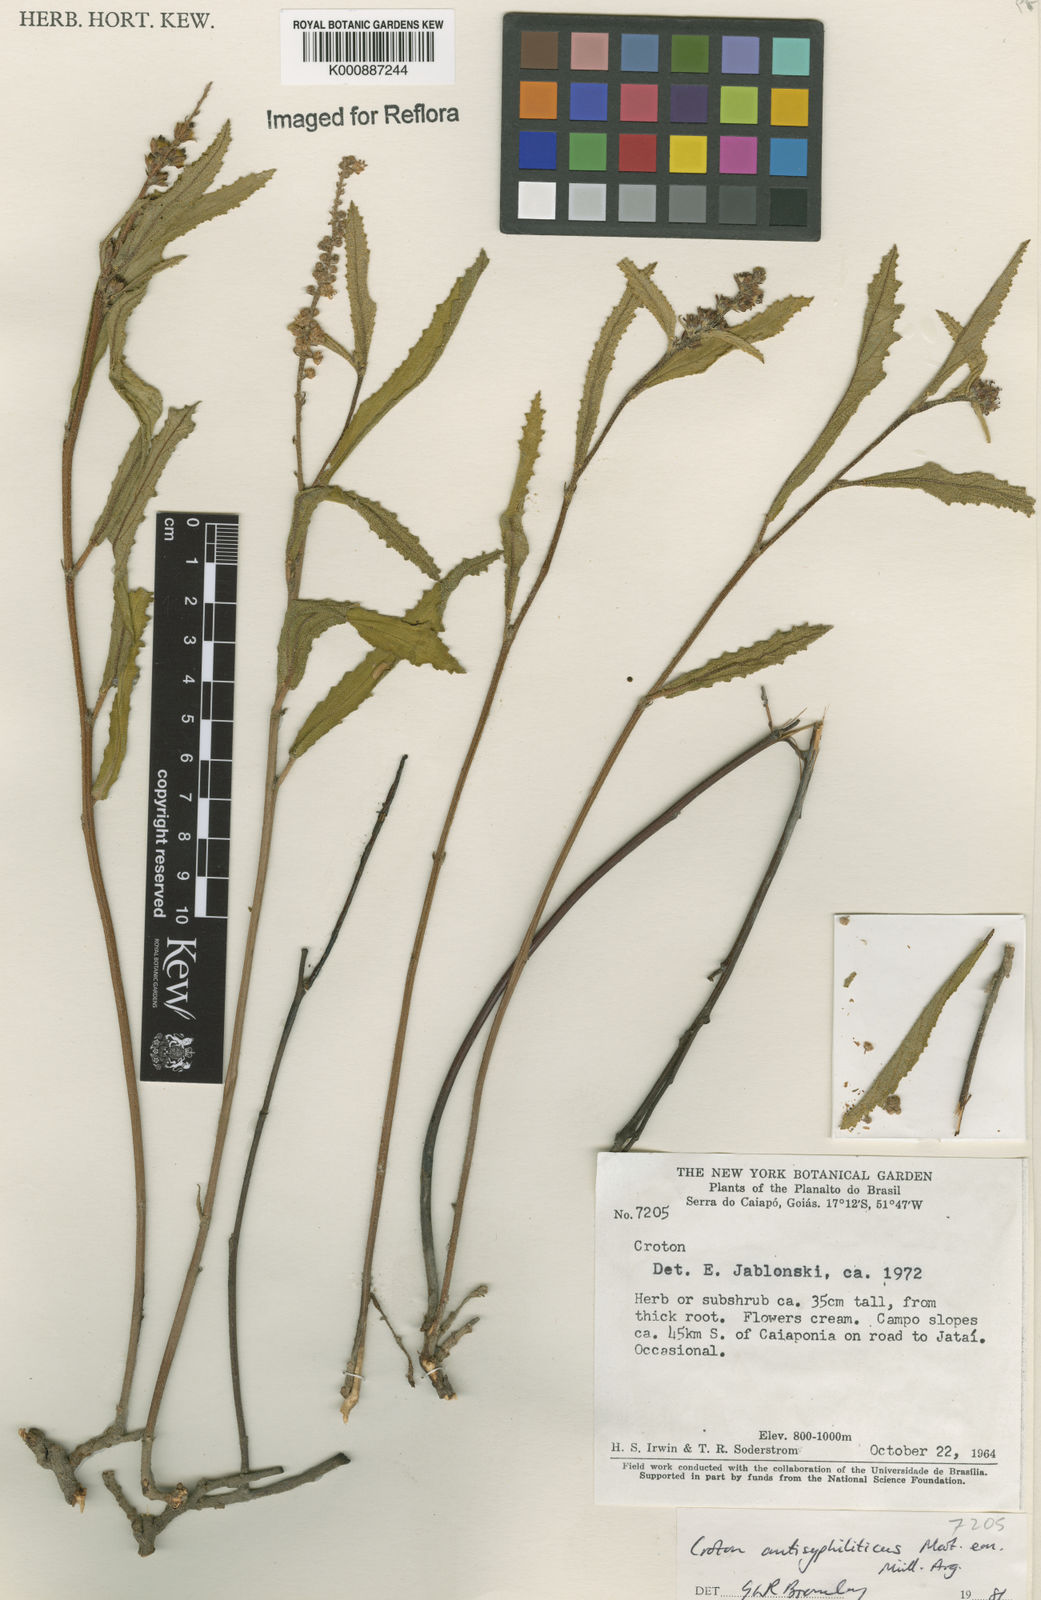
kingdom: Plantae
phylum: Tracheophyta
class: Magnoliopsida
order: Malpighiales
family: Euphorbiaceae
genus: Croton
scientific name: Croton antisyphiliticus
